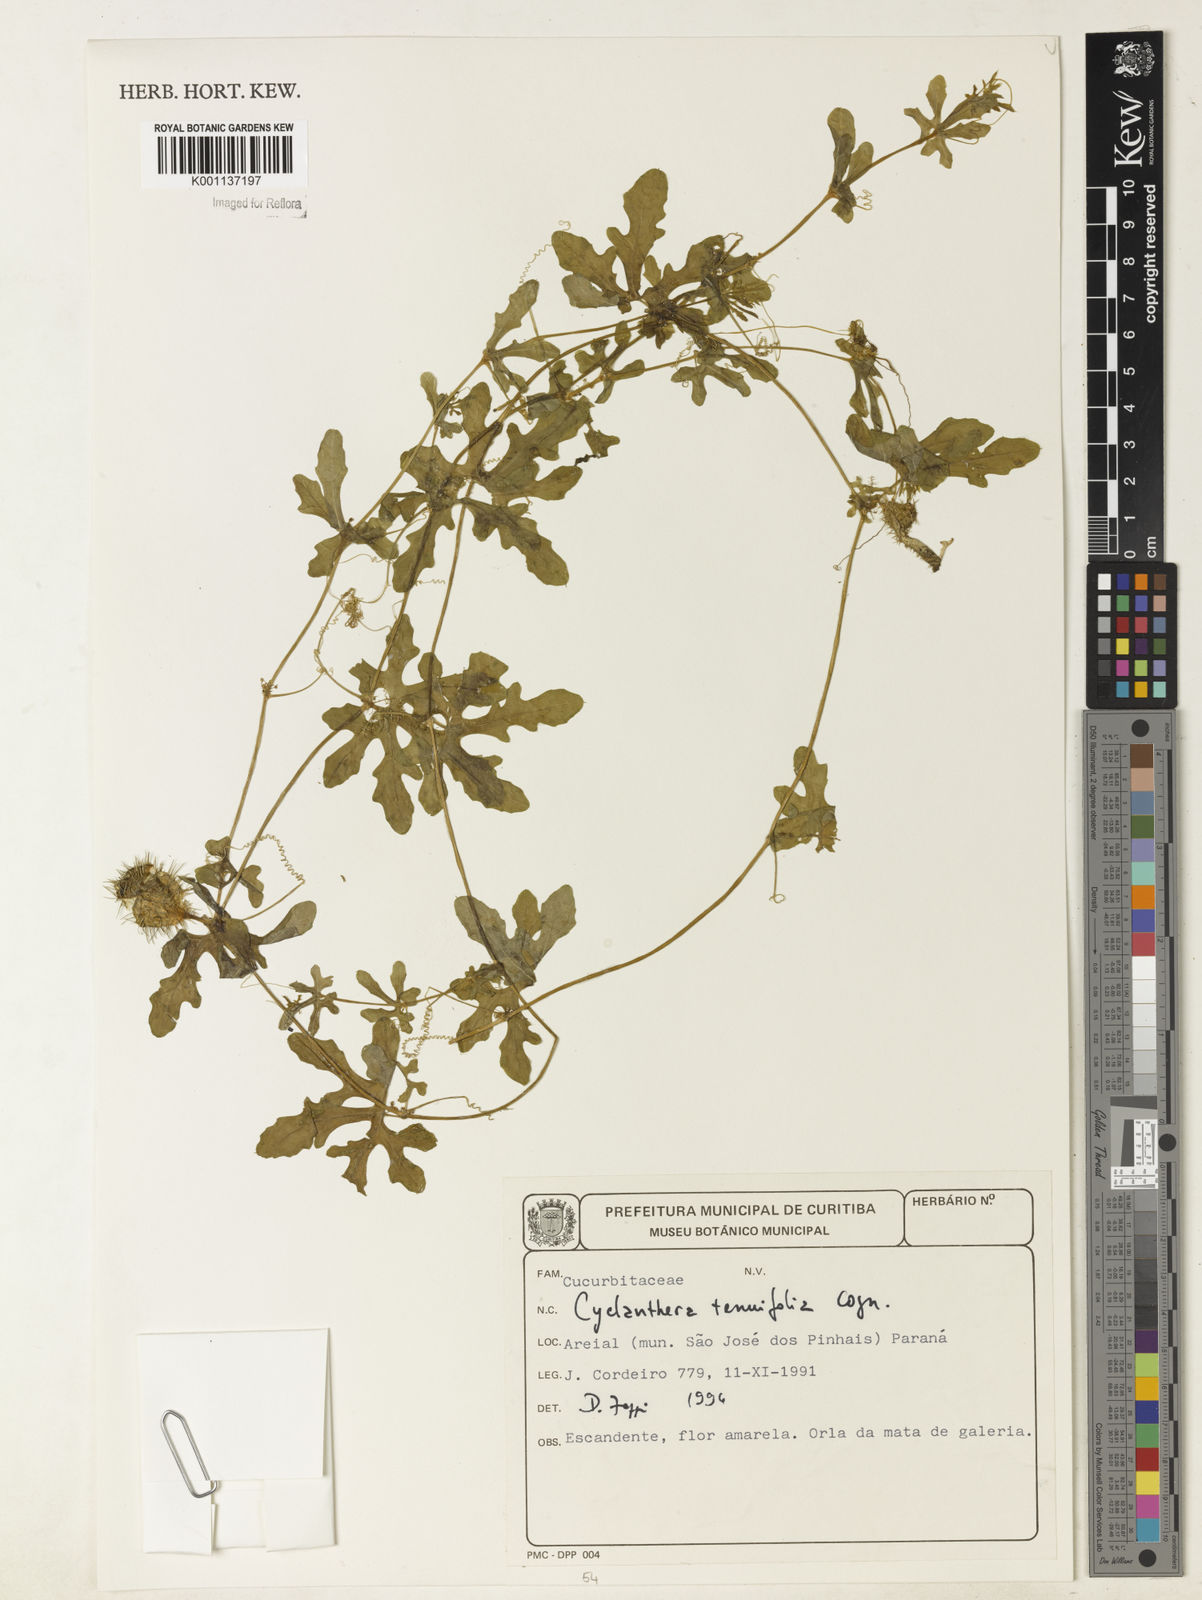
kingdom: Plantae
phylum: Tracheophyta
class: Magnoliopsida
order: Cucurbitales
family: Cucurbitaceae
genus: Cyclanthera
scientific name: Cyclanthera tenuifolia
